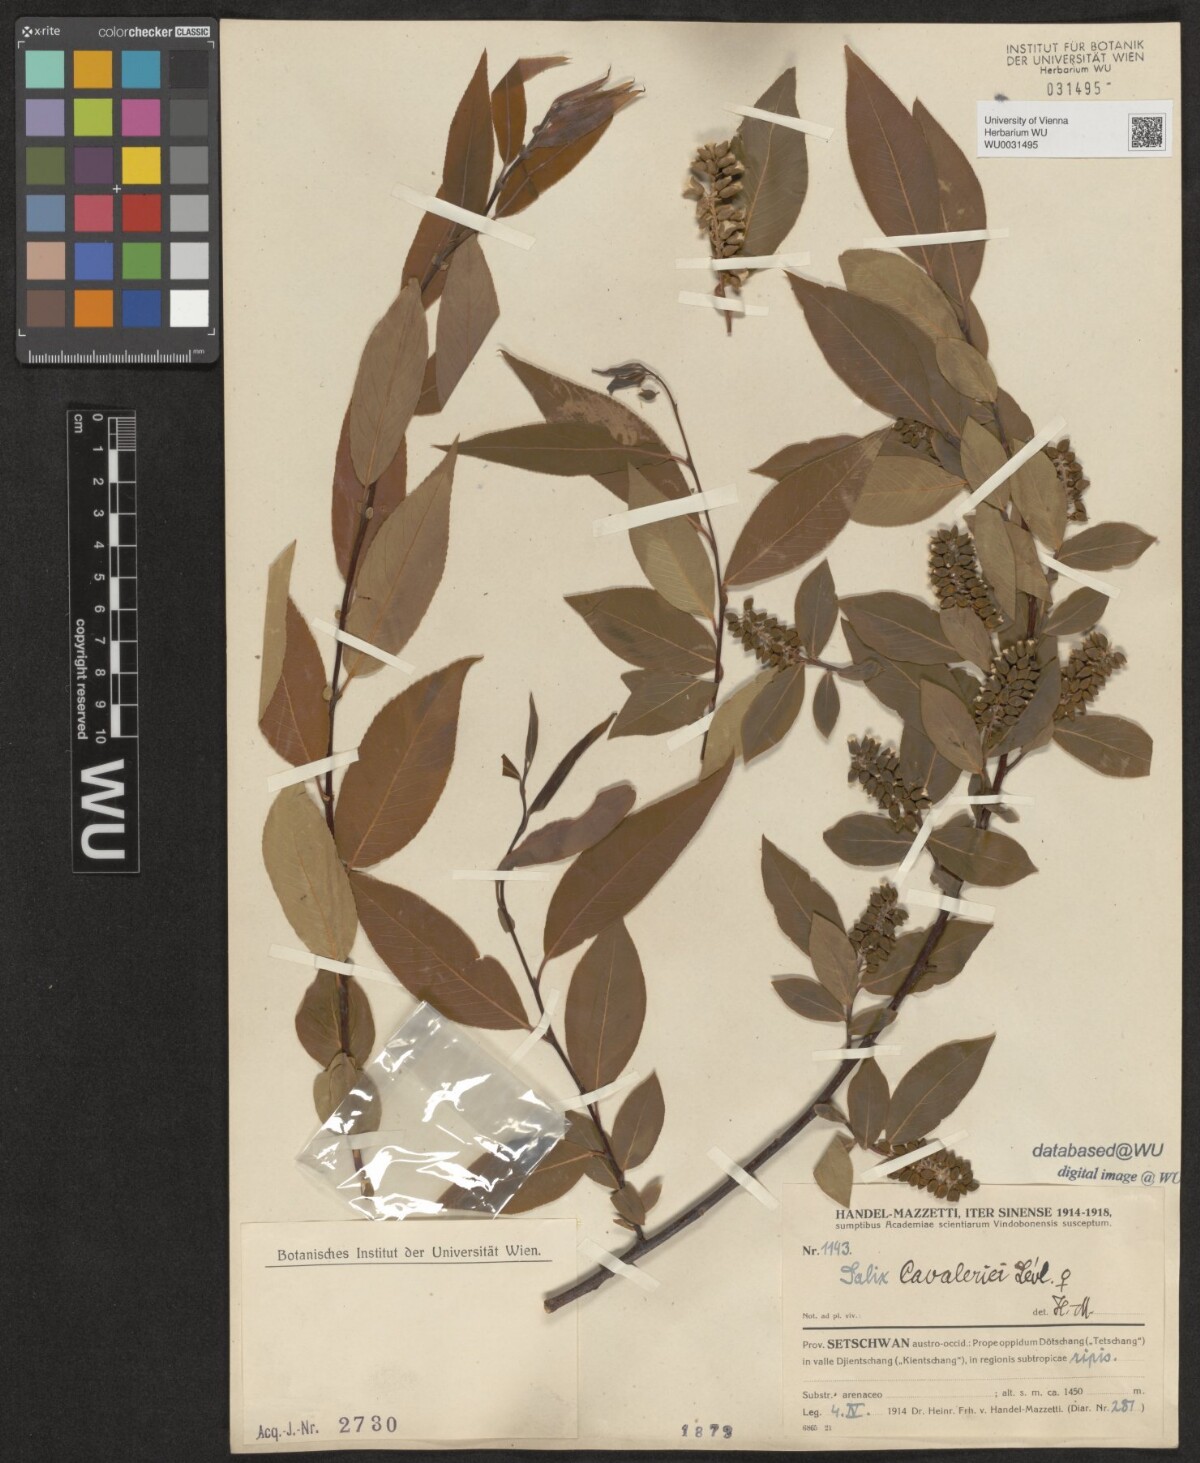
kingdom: Plantae
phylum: Tracheophyta
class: Magnoliopsida
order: Malpighiales
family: Salicaceae
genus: Salix
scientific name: Salix cavaleriei
